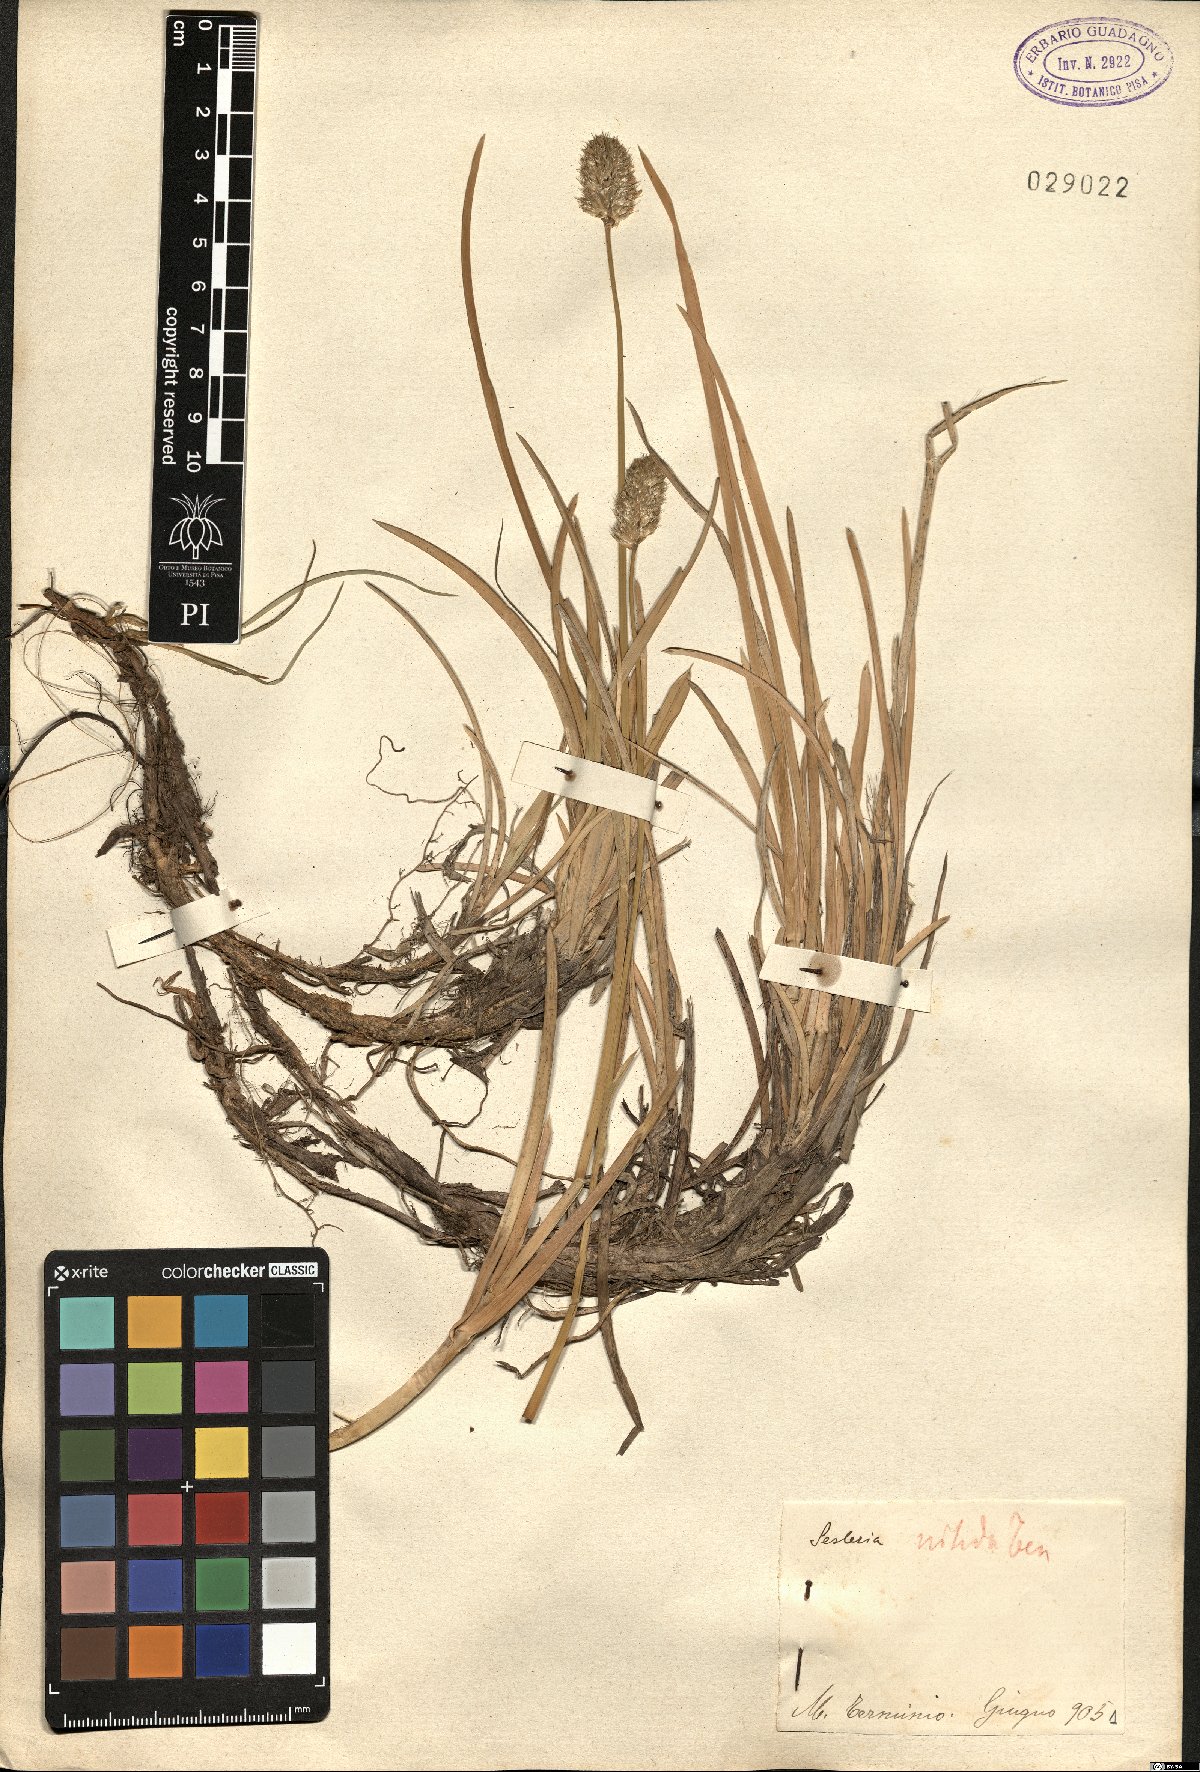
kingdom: Plantae
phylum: Tracheophyta
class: Liliopsida
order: Poales
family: Poaceae
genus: Sesleria
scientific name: Sesleria nitida
